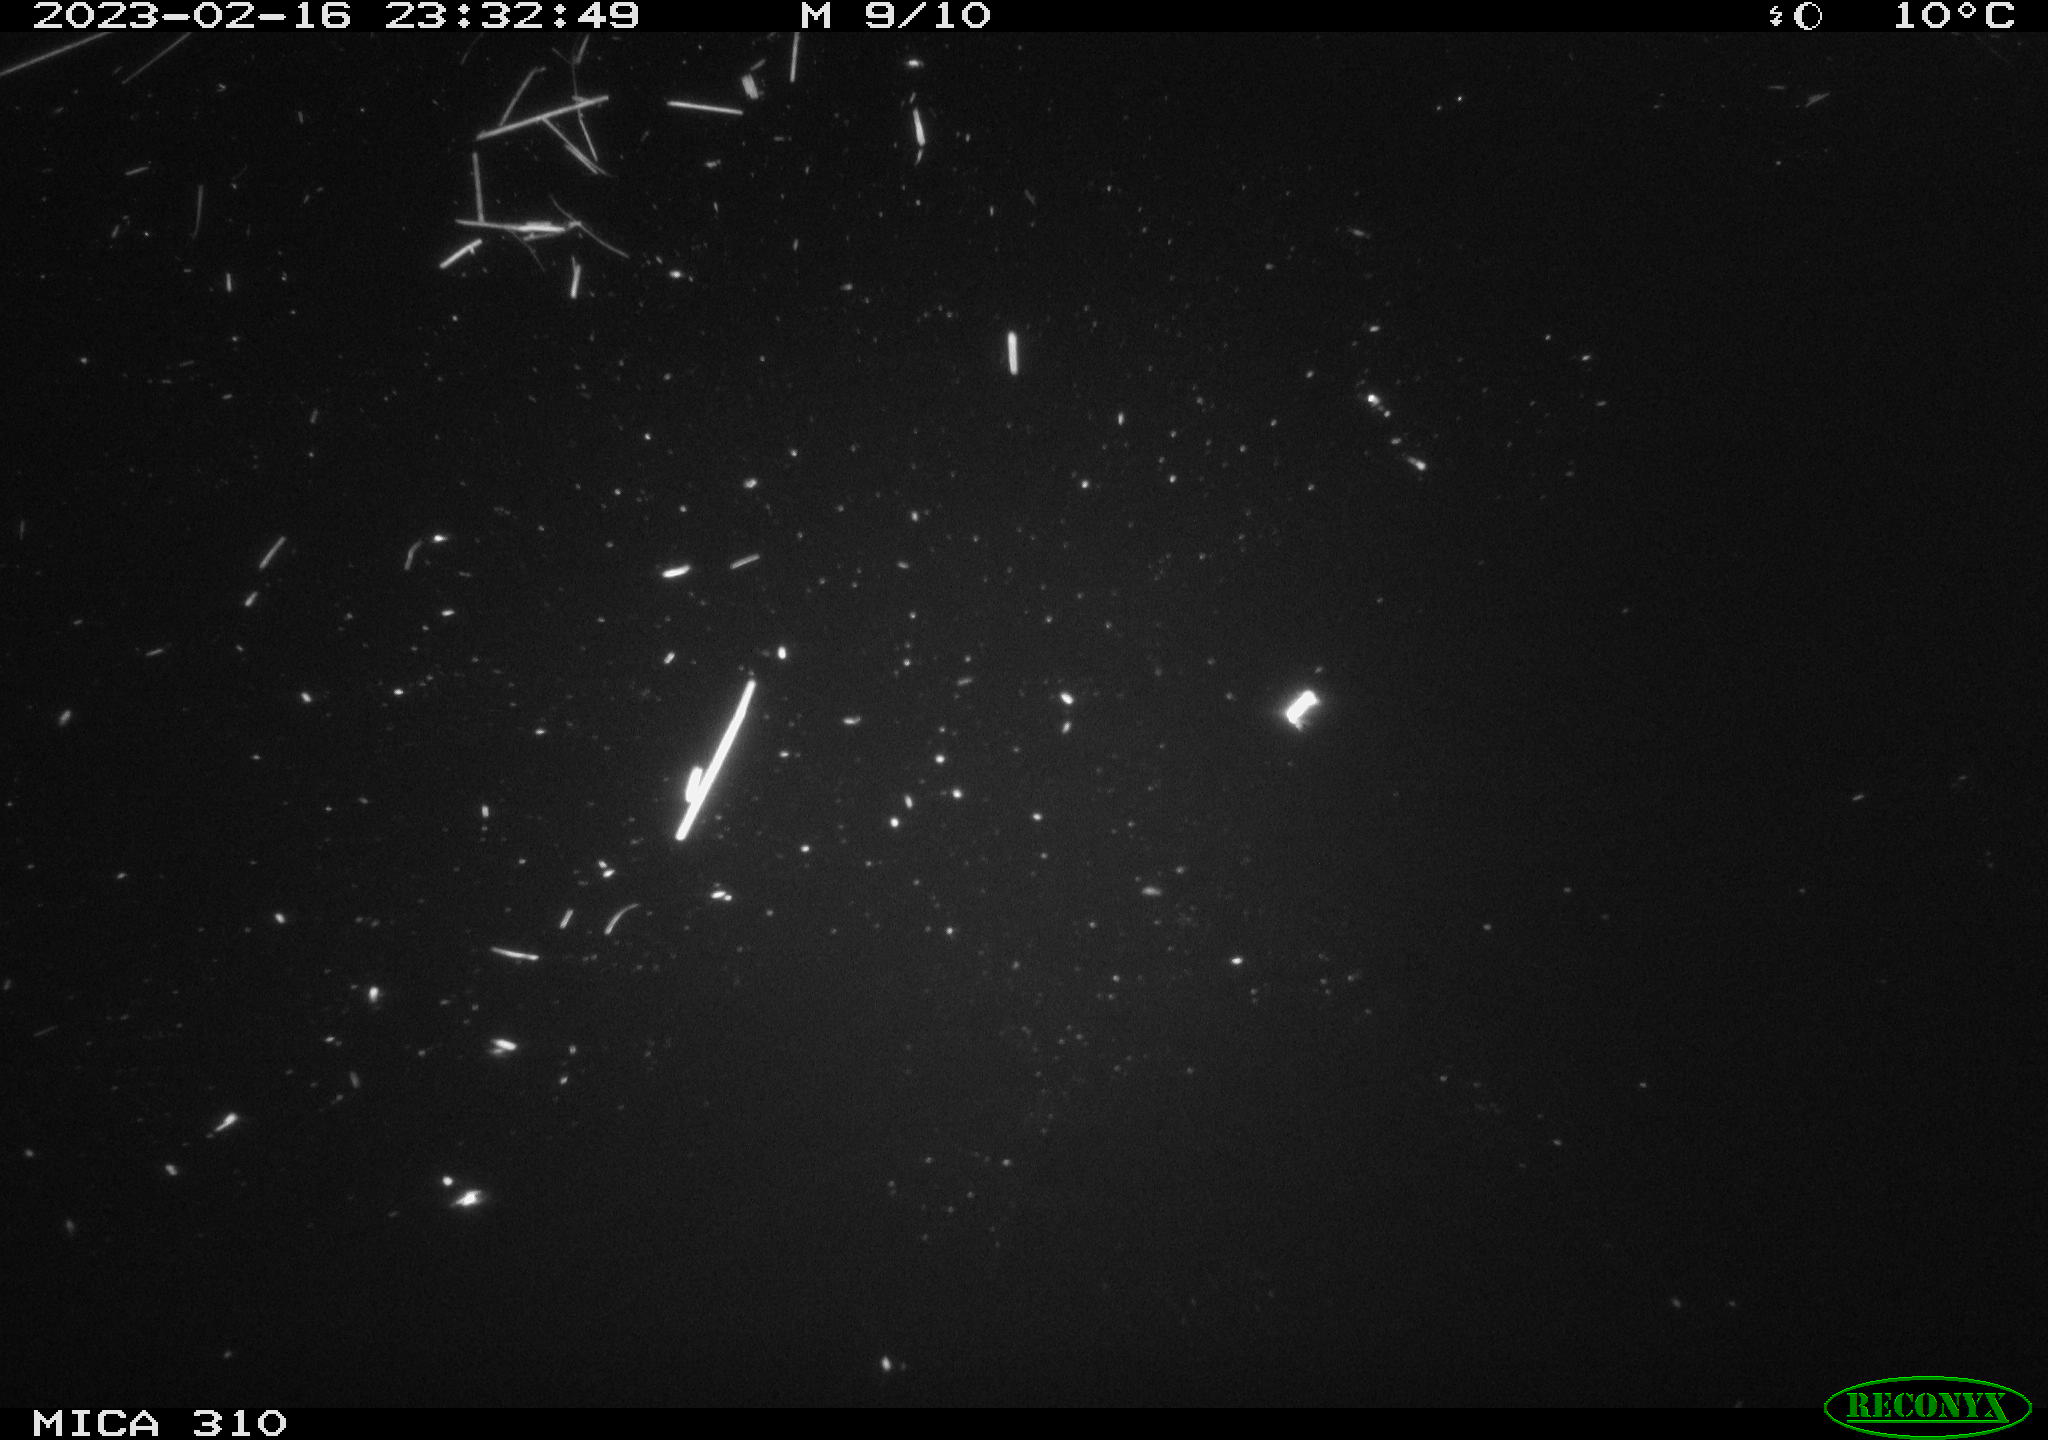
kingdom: Animalia
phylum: Chordata
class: Mammalia
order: Rodentia
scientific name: Rodentia
